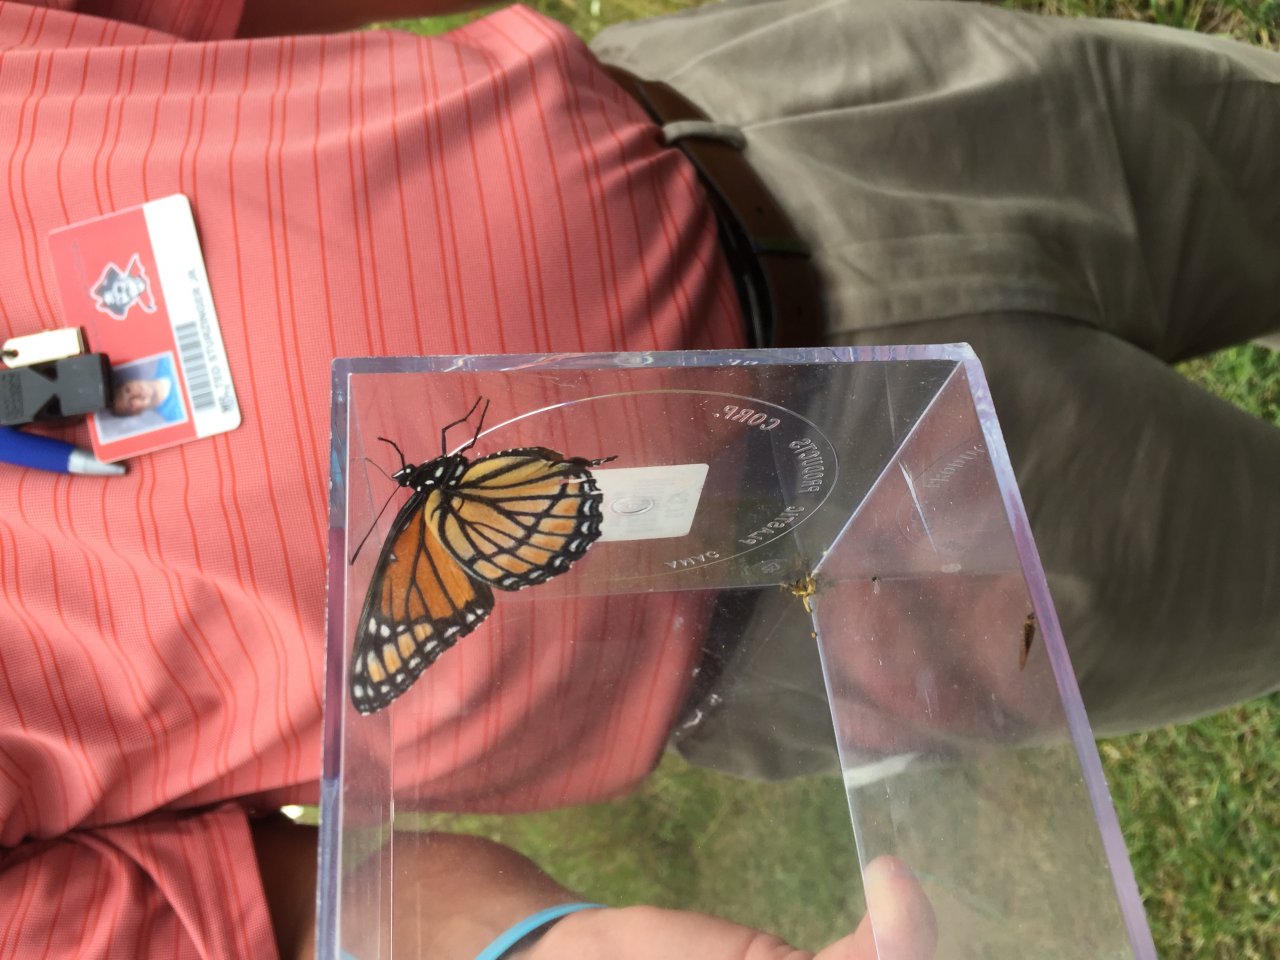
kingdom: Animalia
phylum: Arthropoda
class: Insecta
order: Lepidoptera
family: Nymphalidae
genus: Limenitis
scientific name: Limenitis archippus
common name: Viceroy
